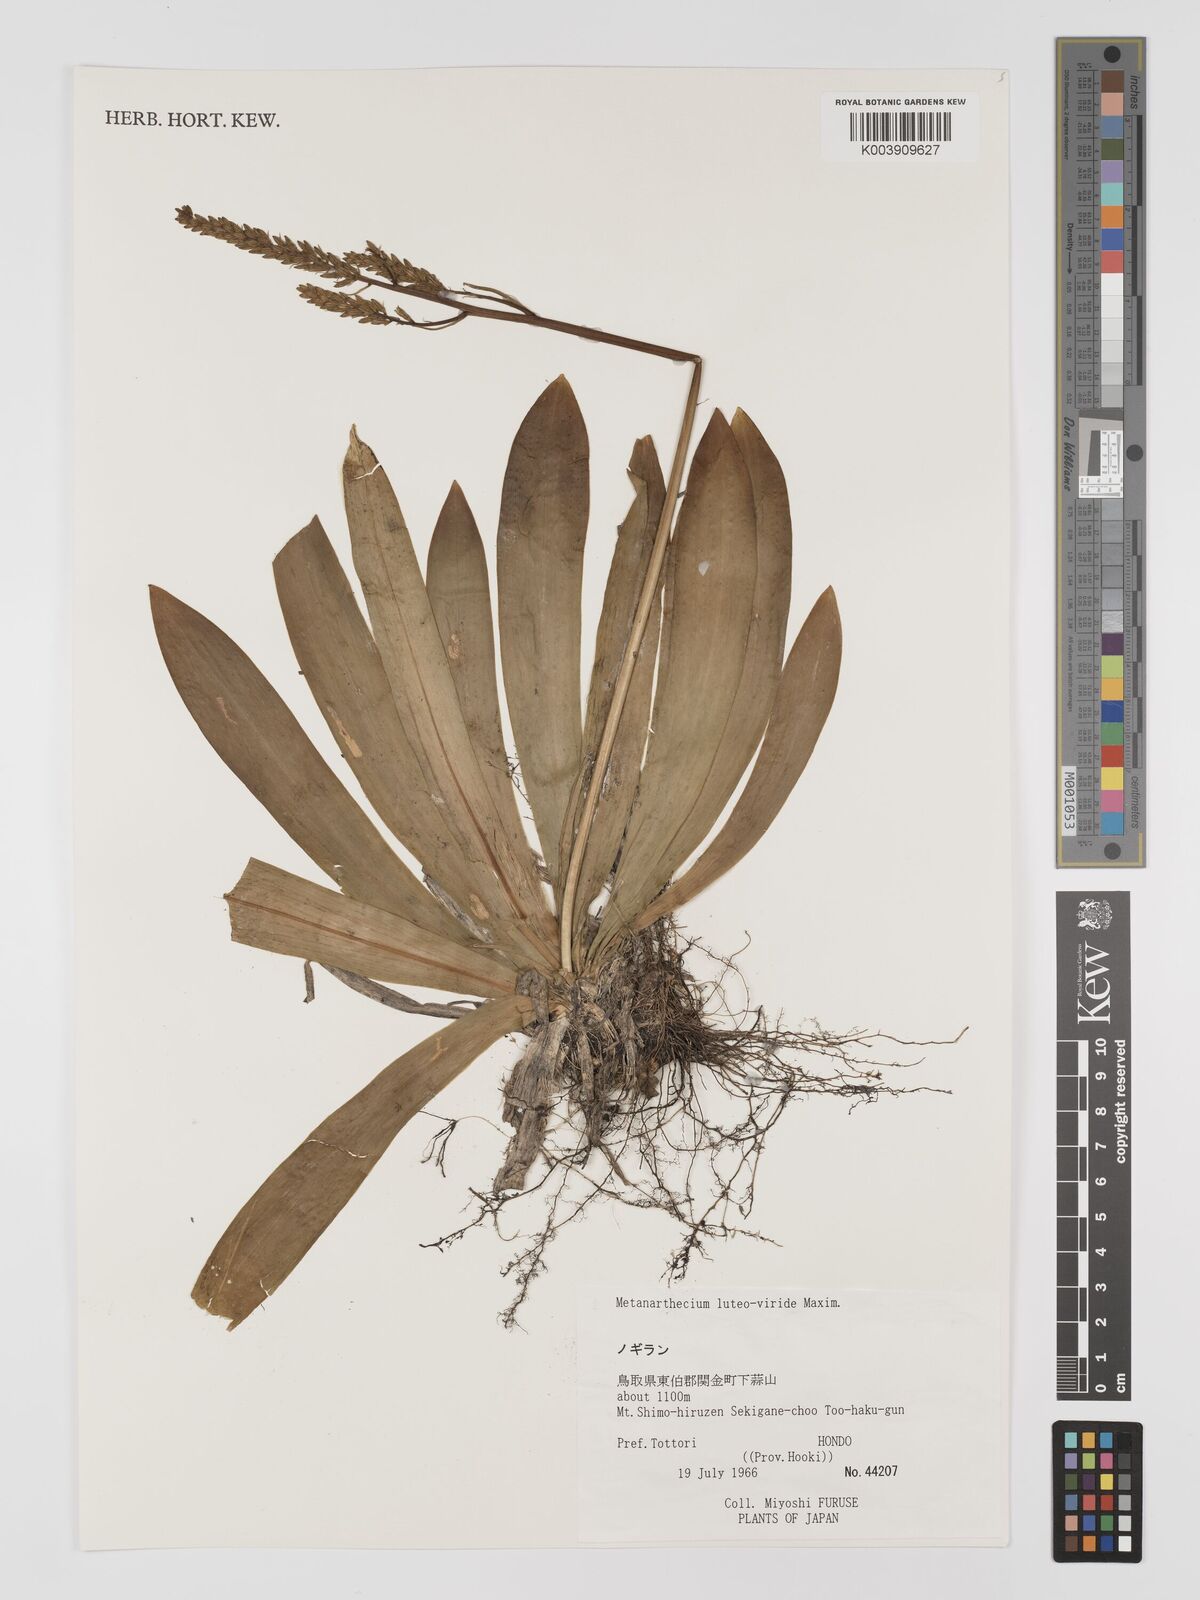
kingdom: Plantae
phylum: Tracheophyta
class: Liliopsida
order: Dioscoreales
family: Nartheciaceae
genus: Metanarthecium
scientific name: Metanarthecium luteoviride
